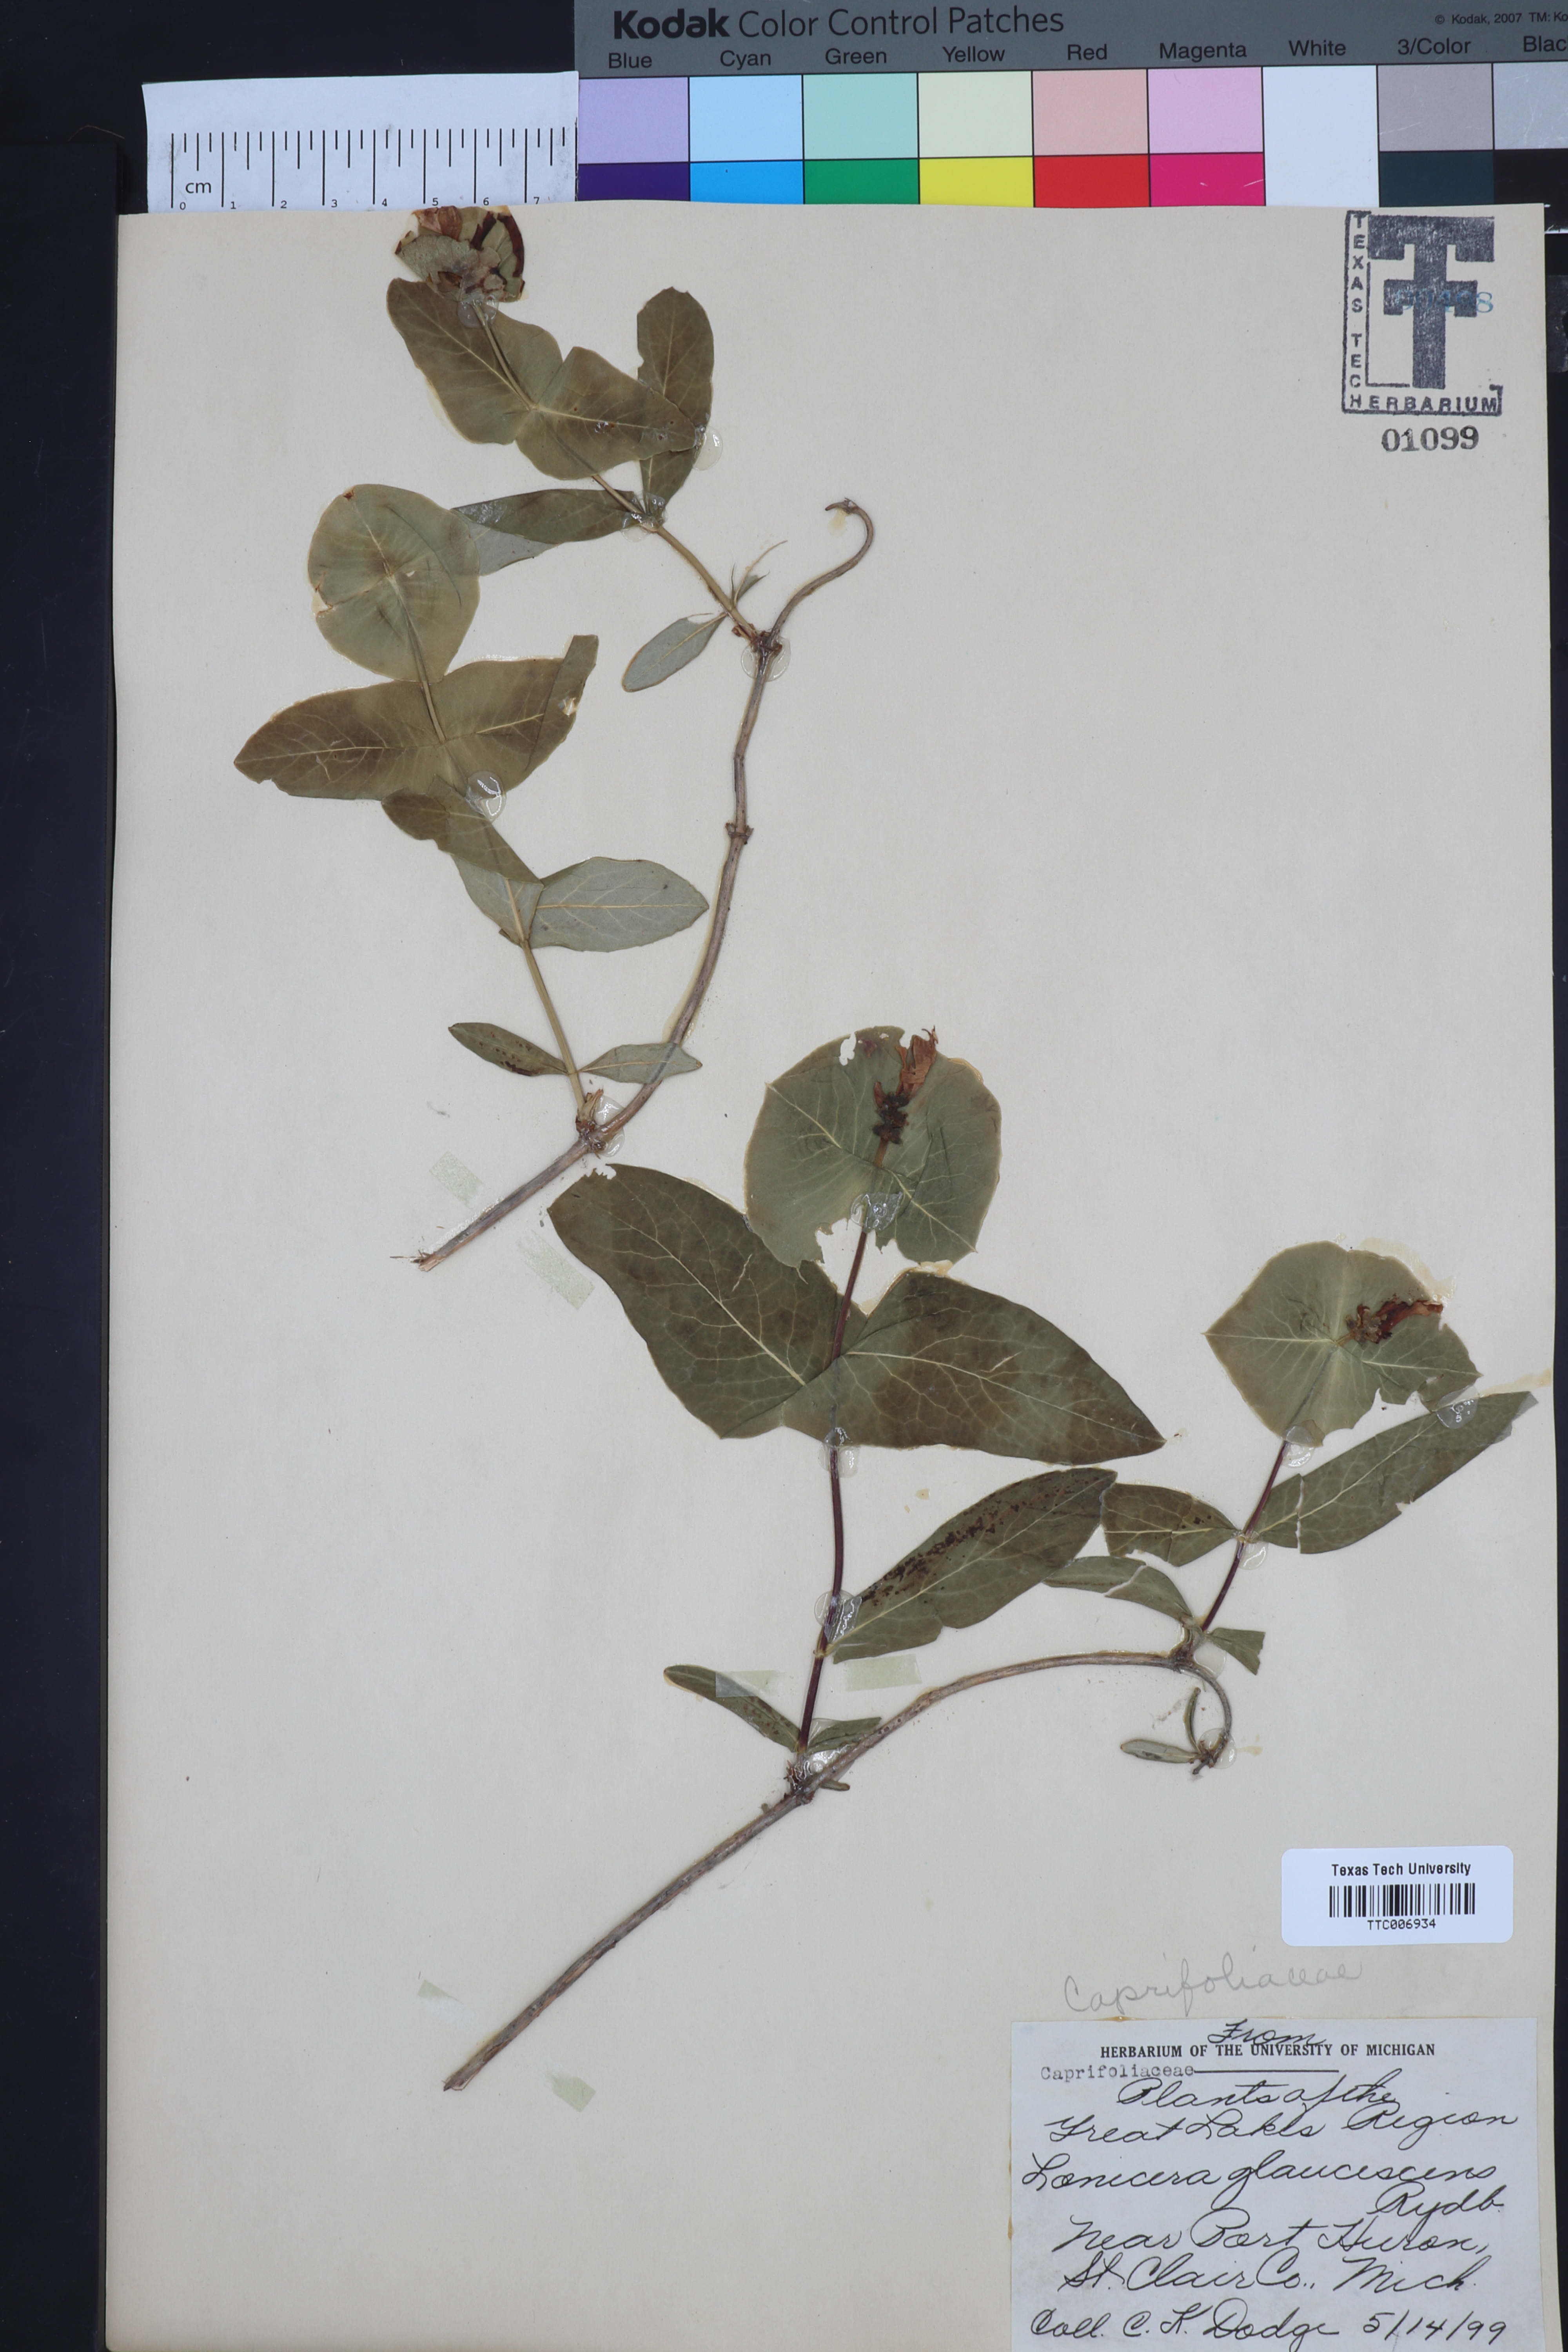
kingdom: Plantae
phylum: Tracheophyta
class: Magnoliopsida
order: Dipsacales
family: Caprifoliaceae
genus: Lonicera
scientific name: Lonicera dioica
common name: Limber honeysuckle
